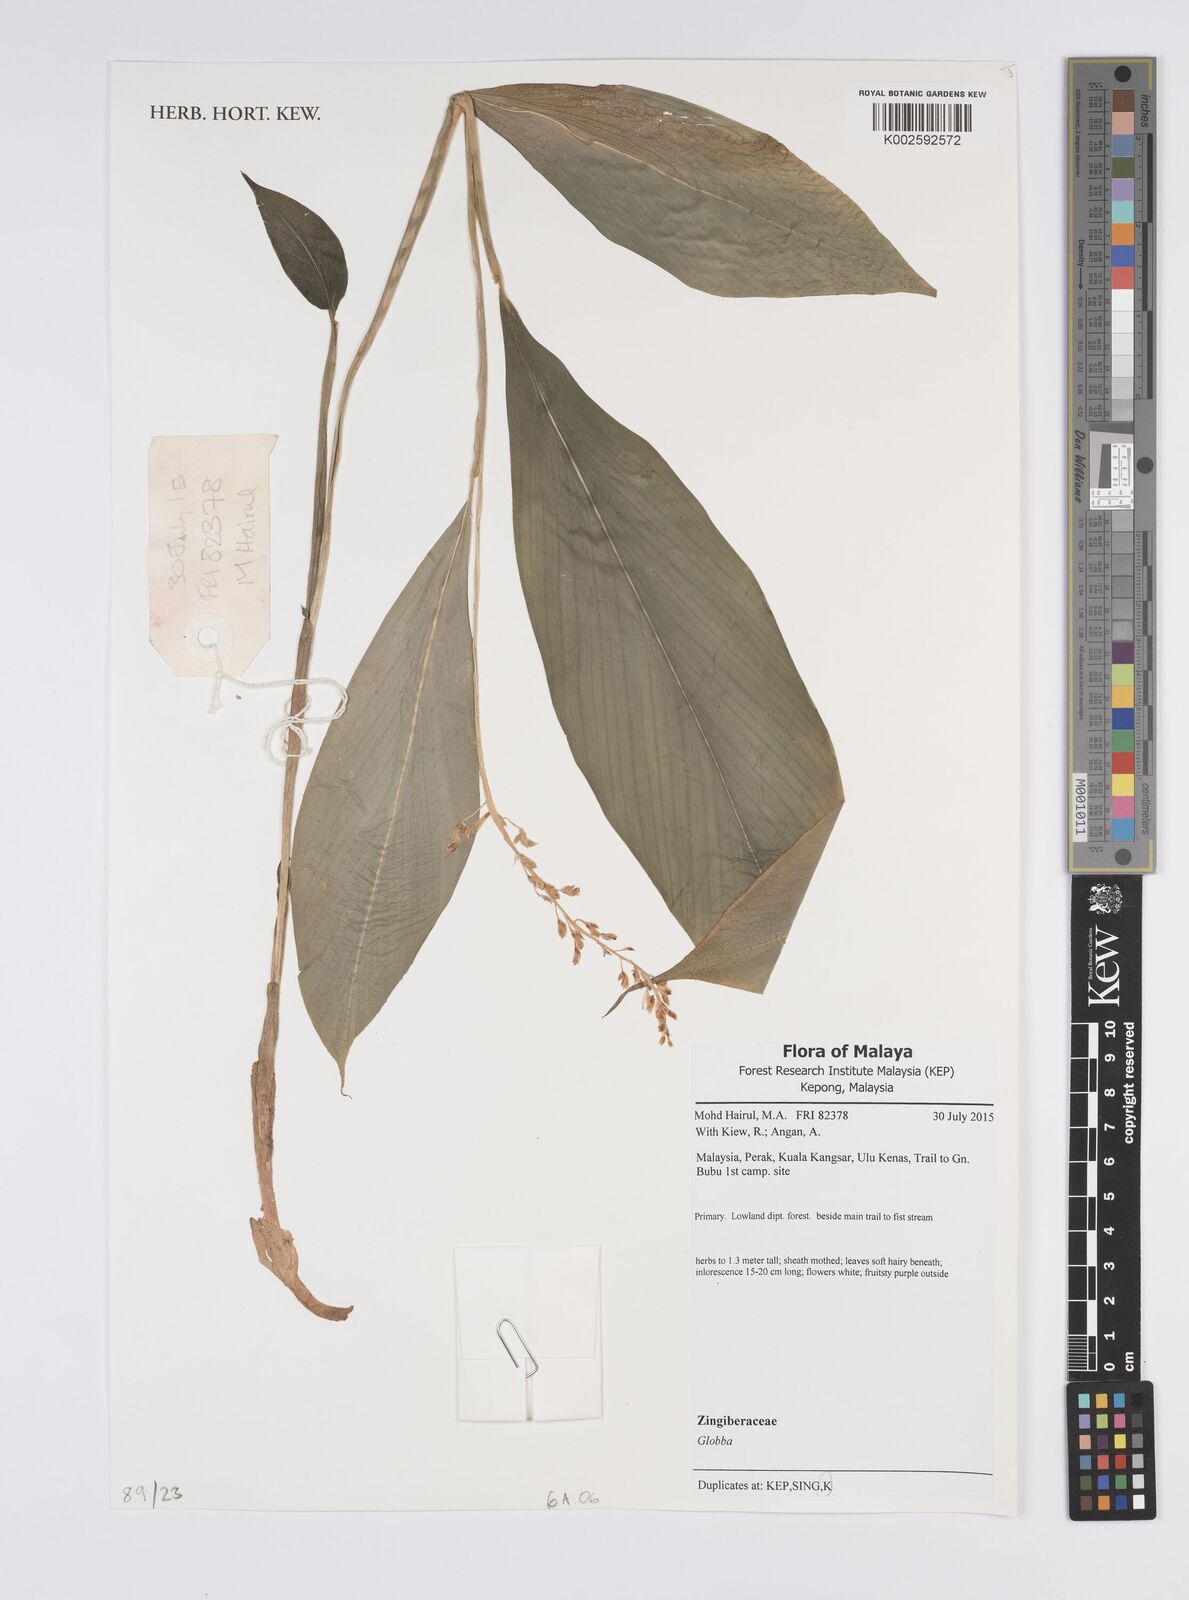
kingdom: Plantae
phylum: Tracheophyta
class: Liliopsida
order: Zingiberales
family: Zingiberaceae
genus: Globba
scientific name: Globba
